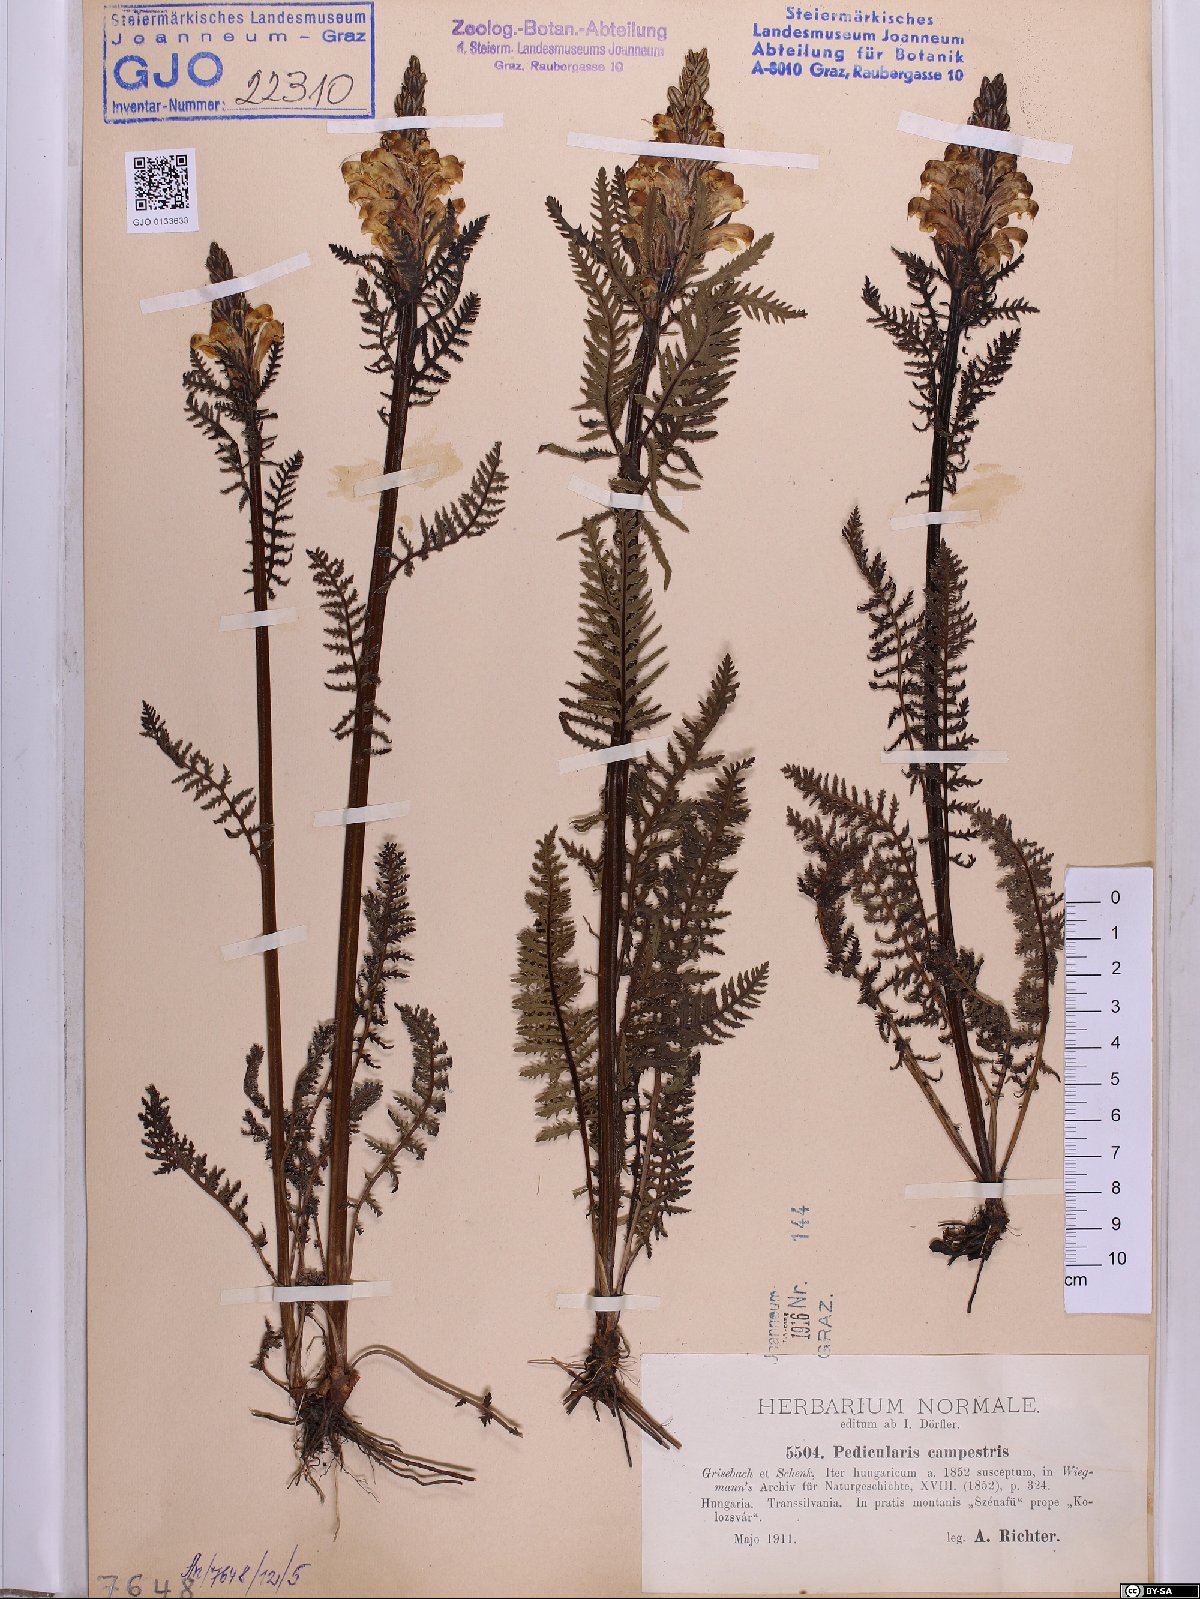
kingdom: Plantae
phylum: Tracheophyta
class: Magnoliopsida
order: Lamiales
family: Orobanchaceae
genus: Pedicularis
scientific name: Pedicularis comosa
